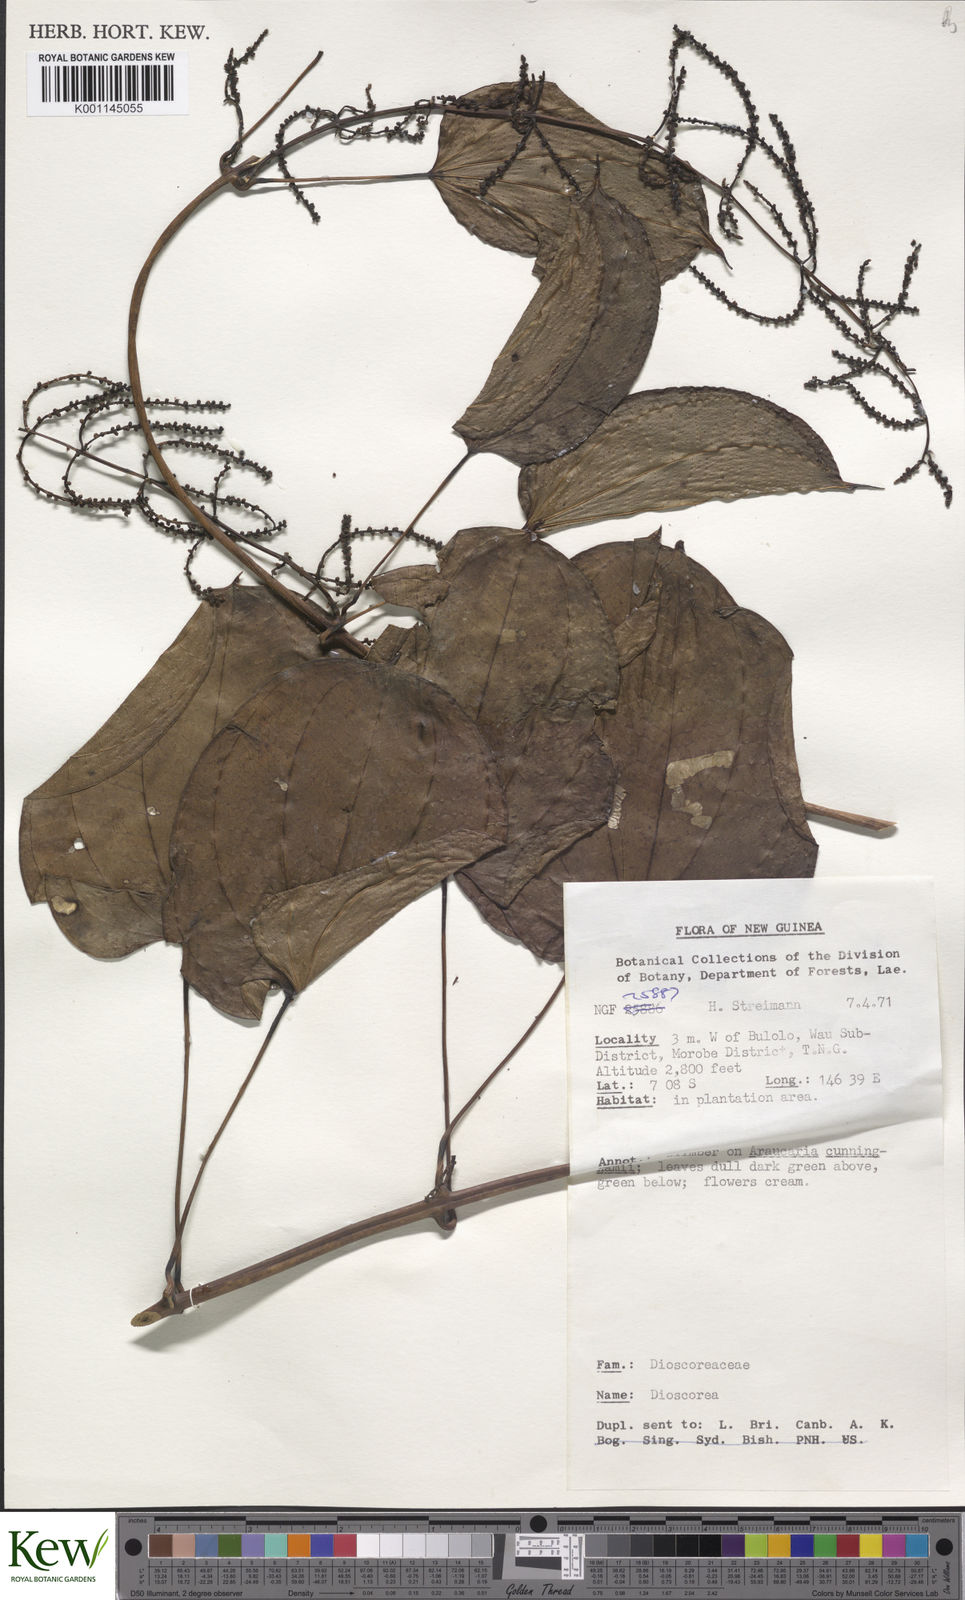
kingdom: Plantae
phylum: Tracheophyta
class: Liliopsida
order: Dioscoreales
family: Dioscoreaceae
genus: Dioscorea
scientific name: Dioscorea
